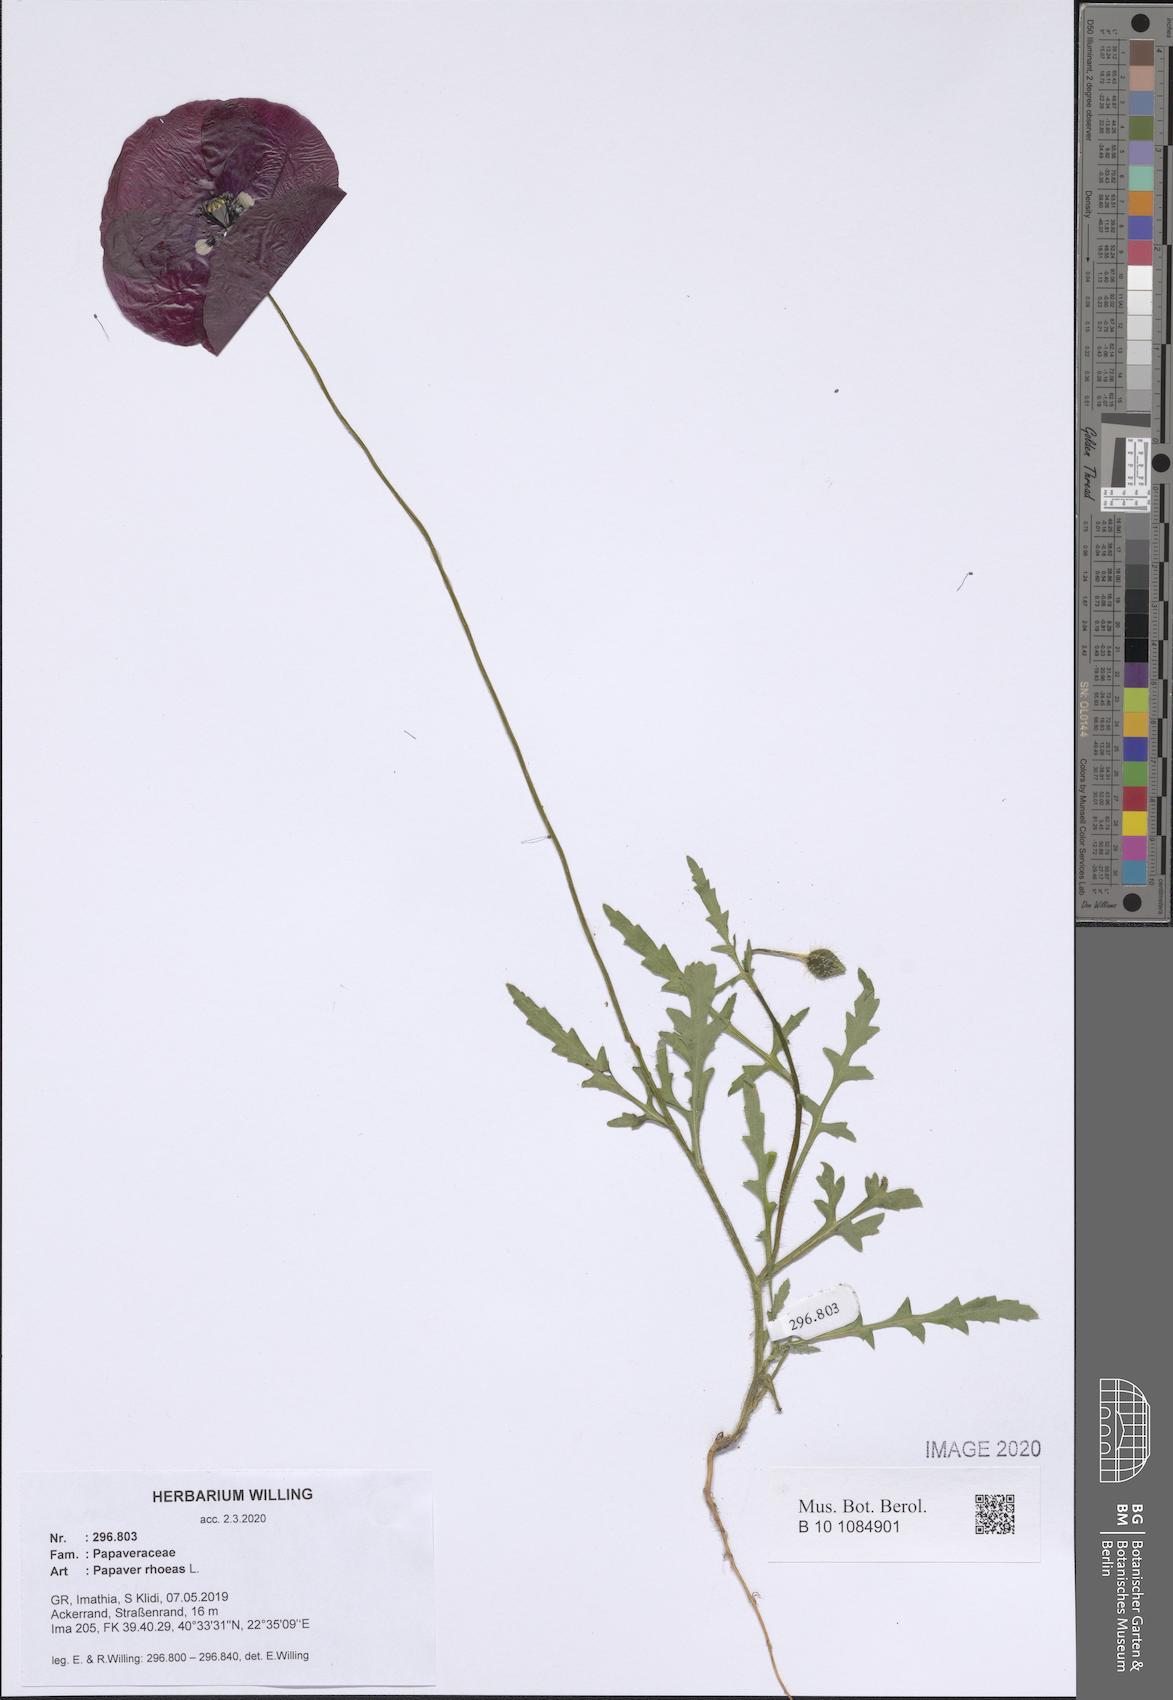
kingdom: Plantae
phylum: Tracheophyta
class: Magnoliopsida
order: Ranunculales
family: Papaveraceae
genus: Papaver
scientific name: Papaver rhoeas
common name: Corn poppy
